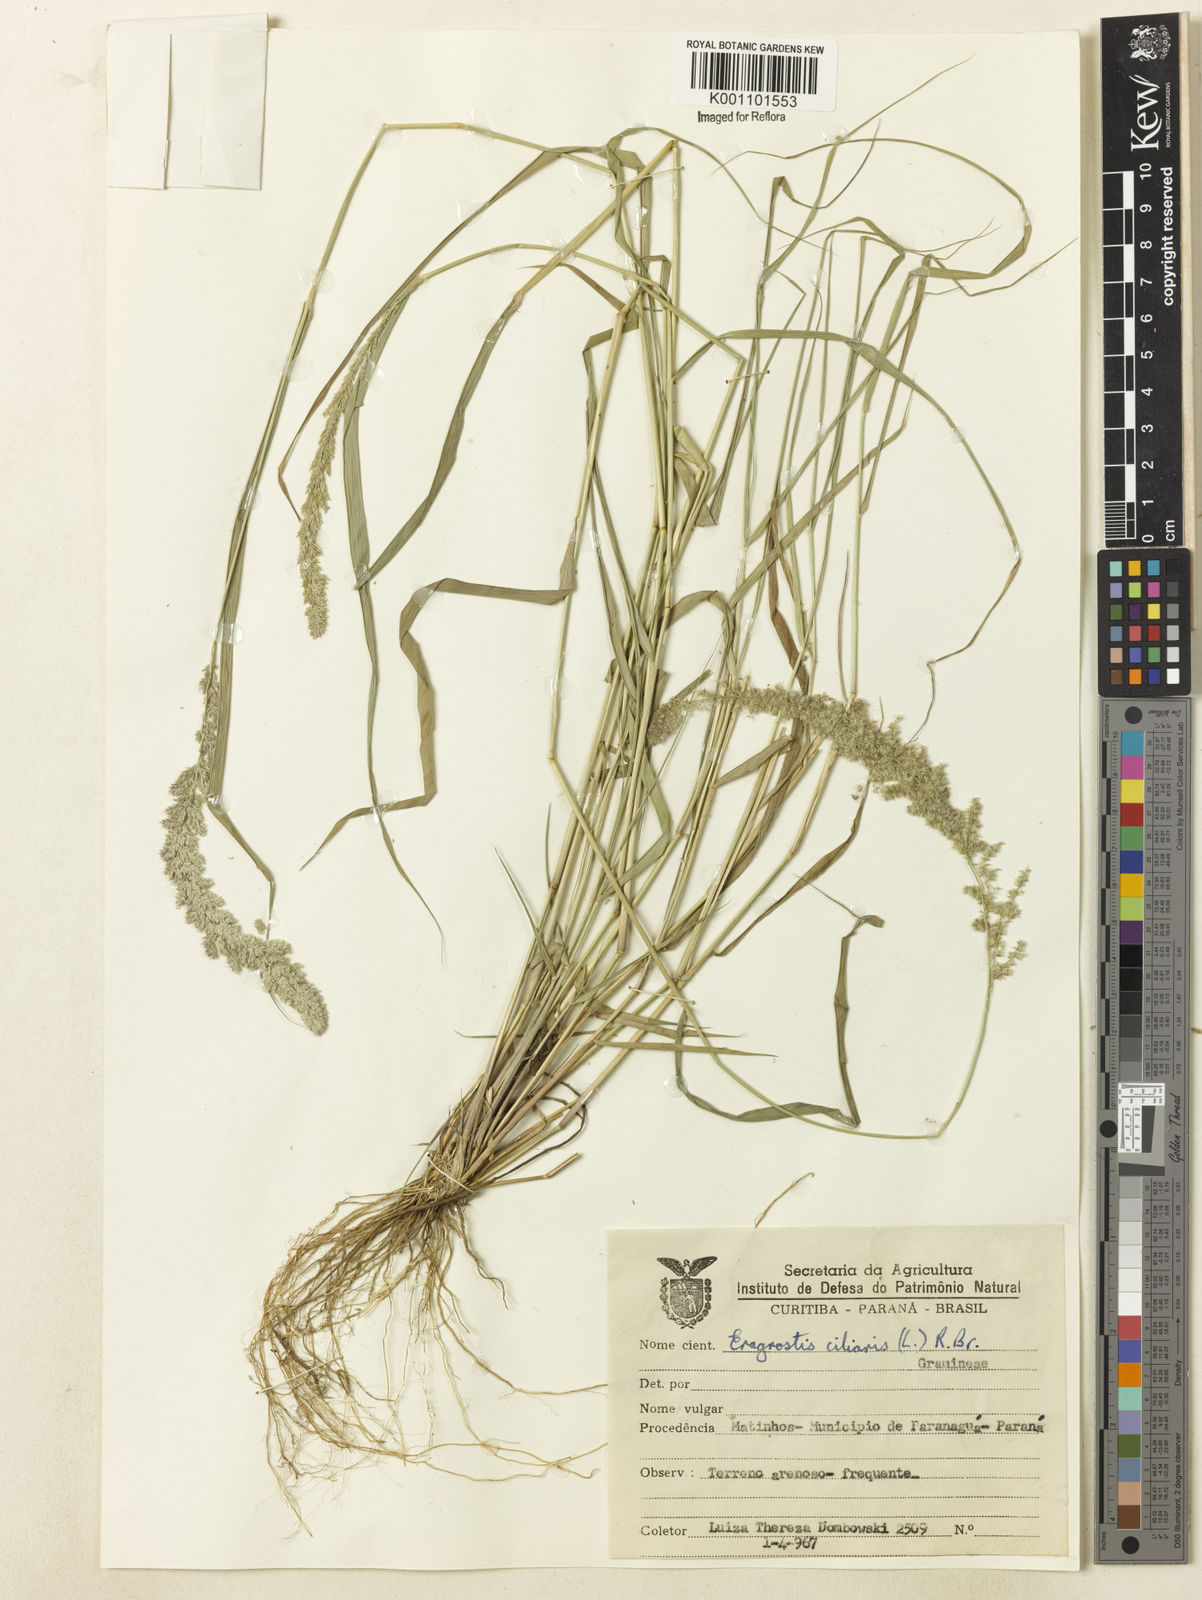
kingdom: Plantae
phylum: Tracheophyta
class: Liliopsida
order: Poales
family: Poaceae
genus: Eragrostis
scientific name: Eragrostis ciliaris
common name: Gophertail lovegrass
